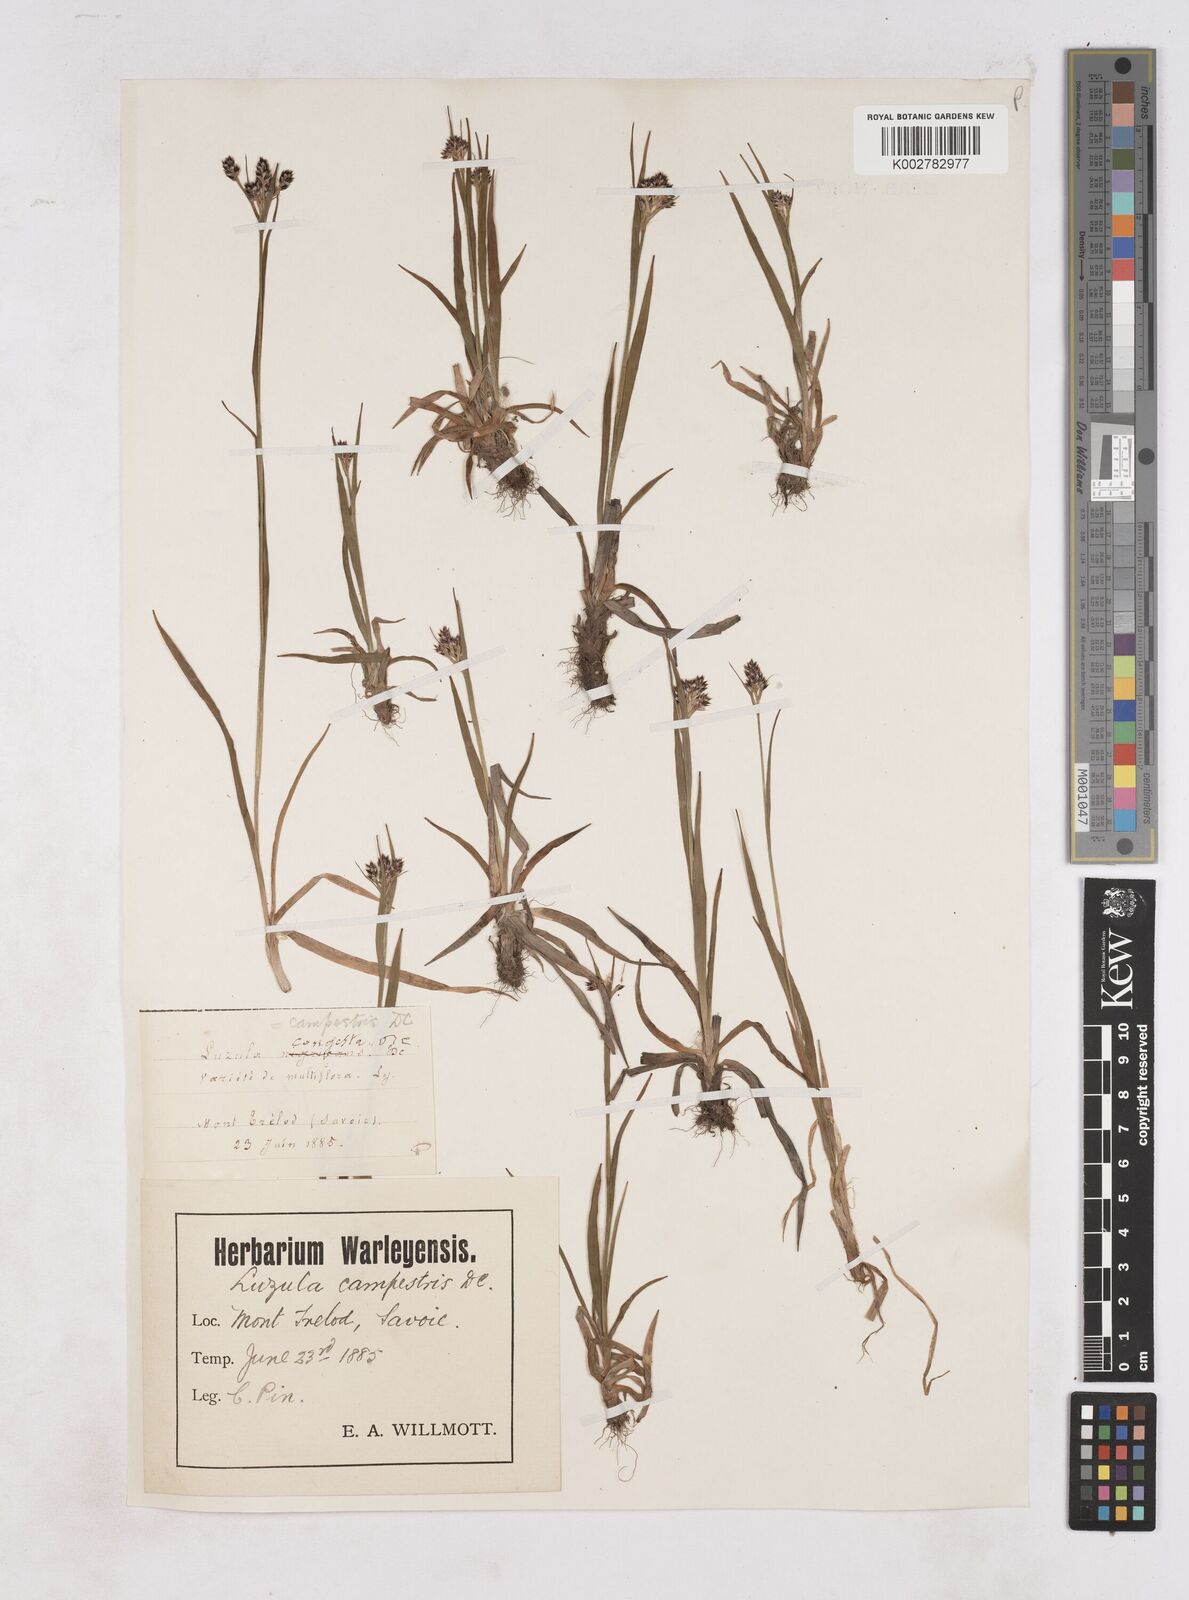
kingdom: Plantae
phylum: Tracheophyta
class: Liliopsida
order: Poales
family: Juncaceae
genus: Luzula
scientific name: Luzula campestris
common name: Field wood-rush
